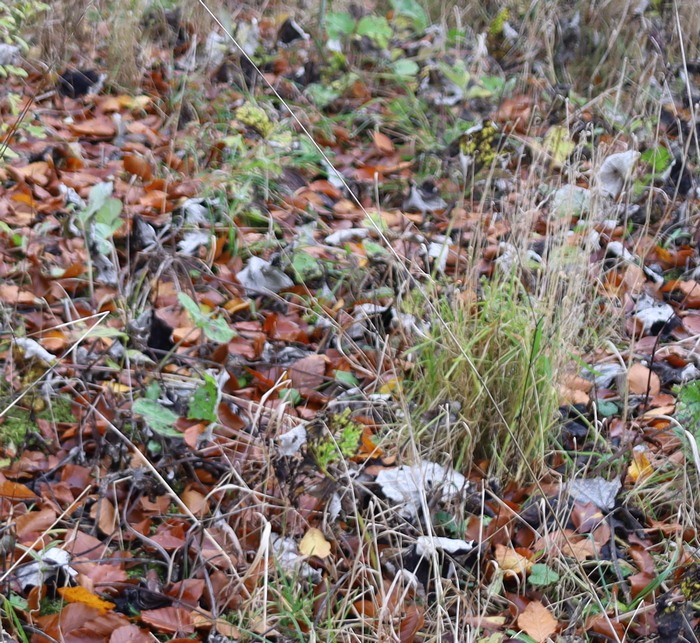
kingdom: Plantae
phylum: Tracheophyta
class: Magnoliopsida
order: Asterales
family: Asteraceae
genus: Tussilago
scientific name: Tussilago farfara
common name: Følfod
